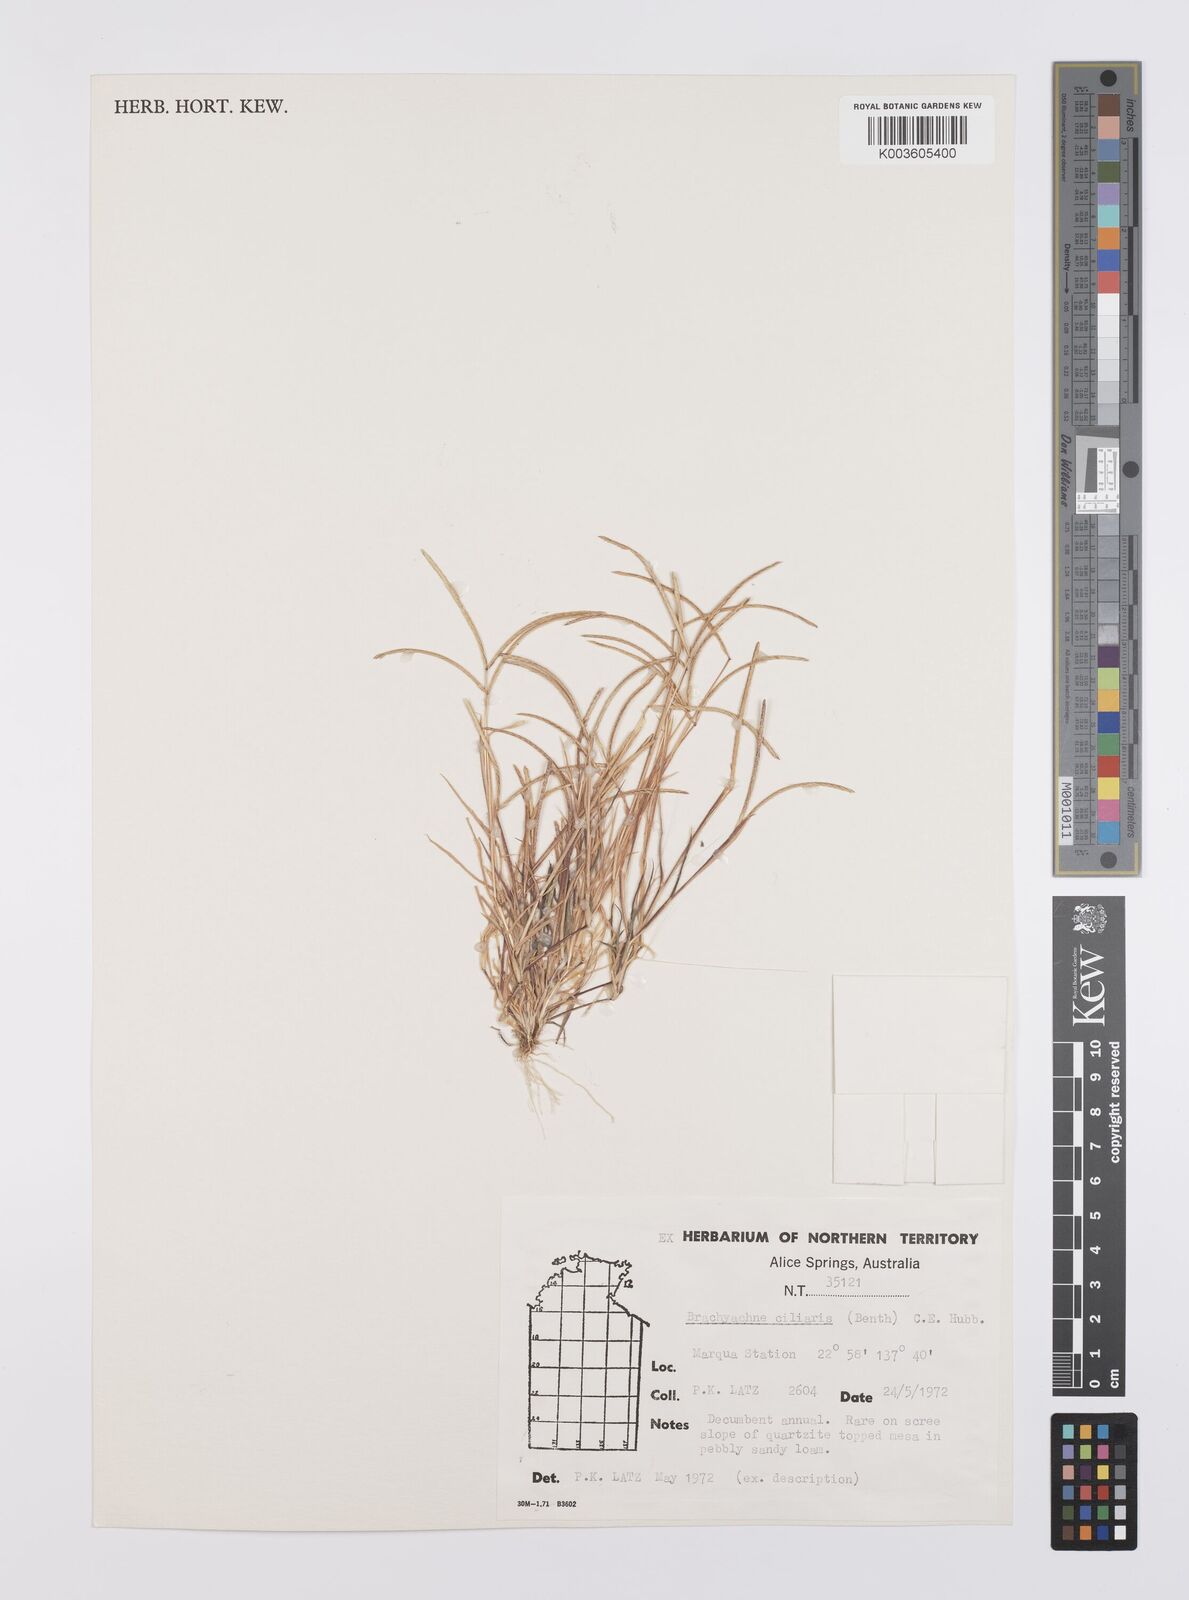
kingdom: Plantae
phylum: Tracheophyta
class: Liliopsida
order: Poales
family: Poaceae
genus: Cynodon
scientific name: Cynodon simonii
